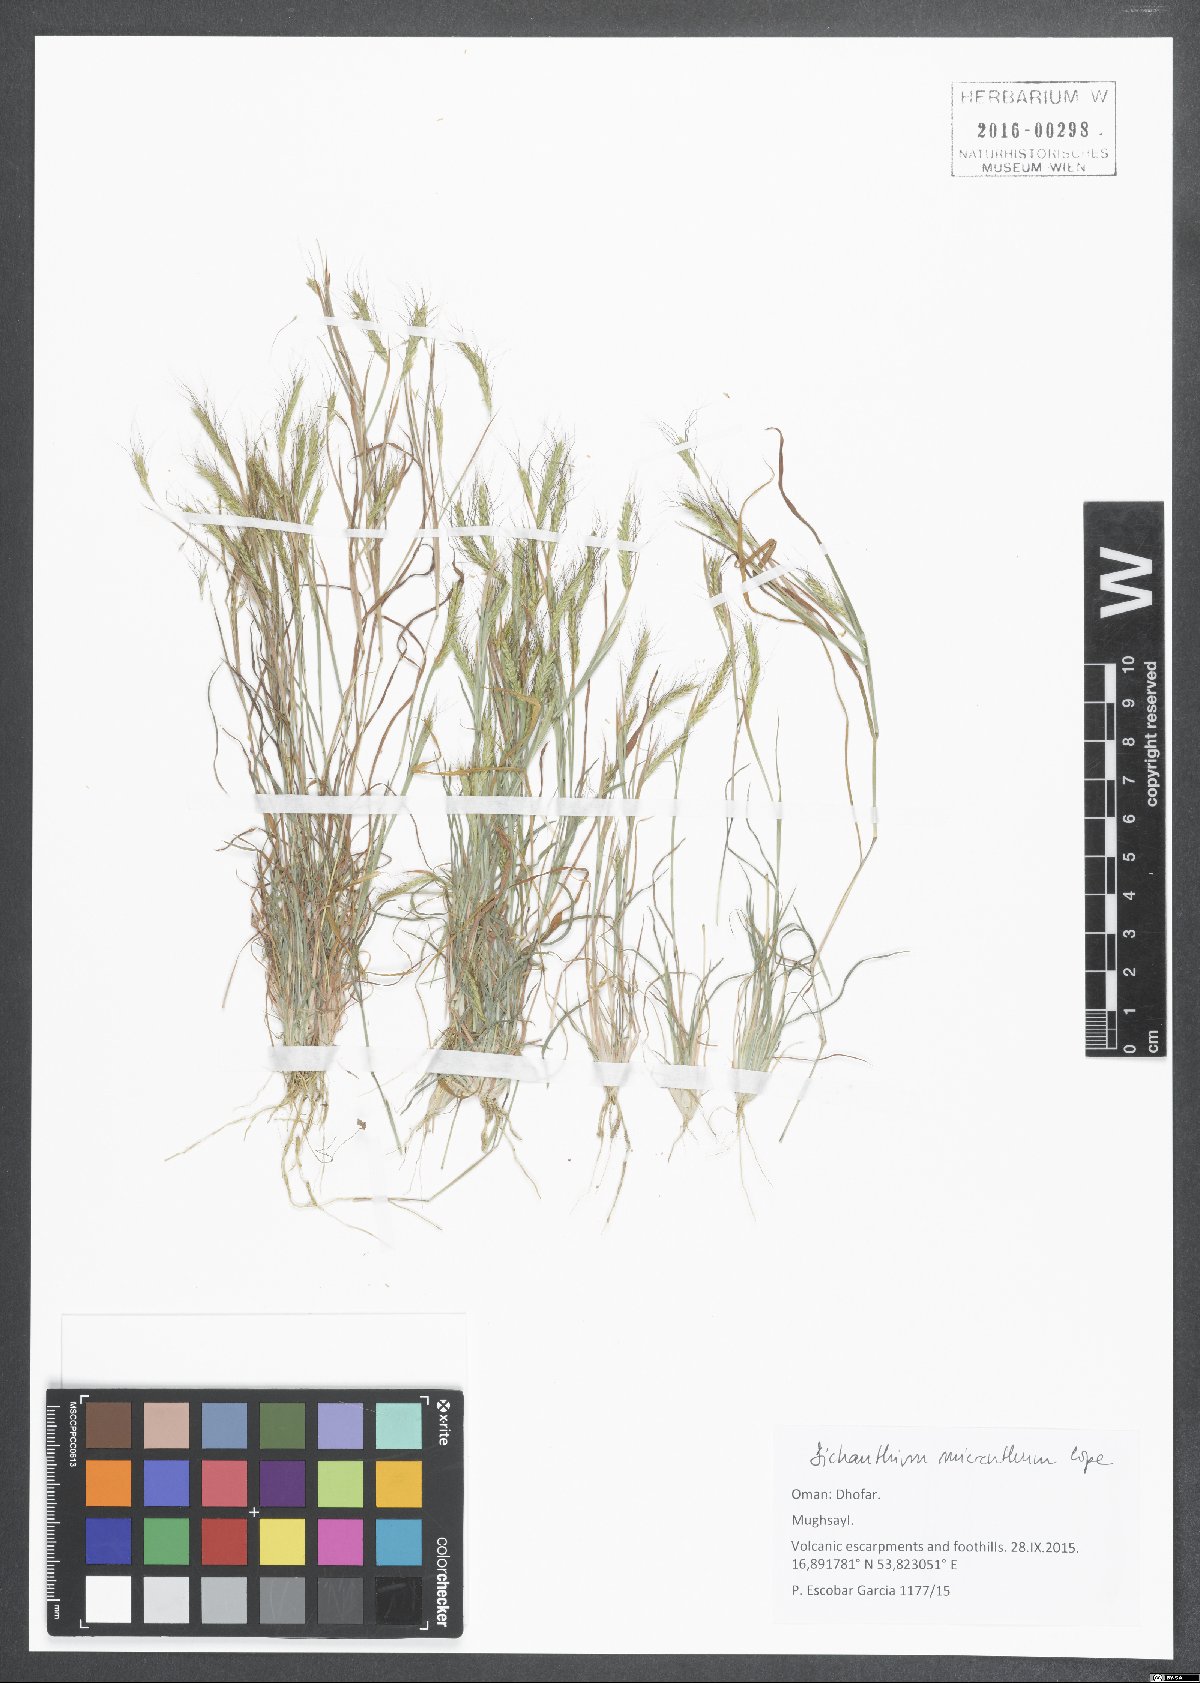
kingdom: Plantae
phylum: Tracheophyta
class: Liliopsida
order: Poales
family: Poaceae
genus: Dichanthium
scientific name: Dichanthium micranthum
